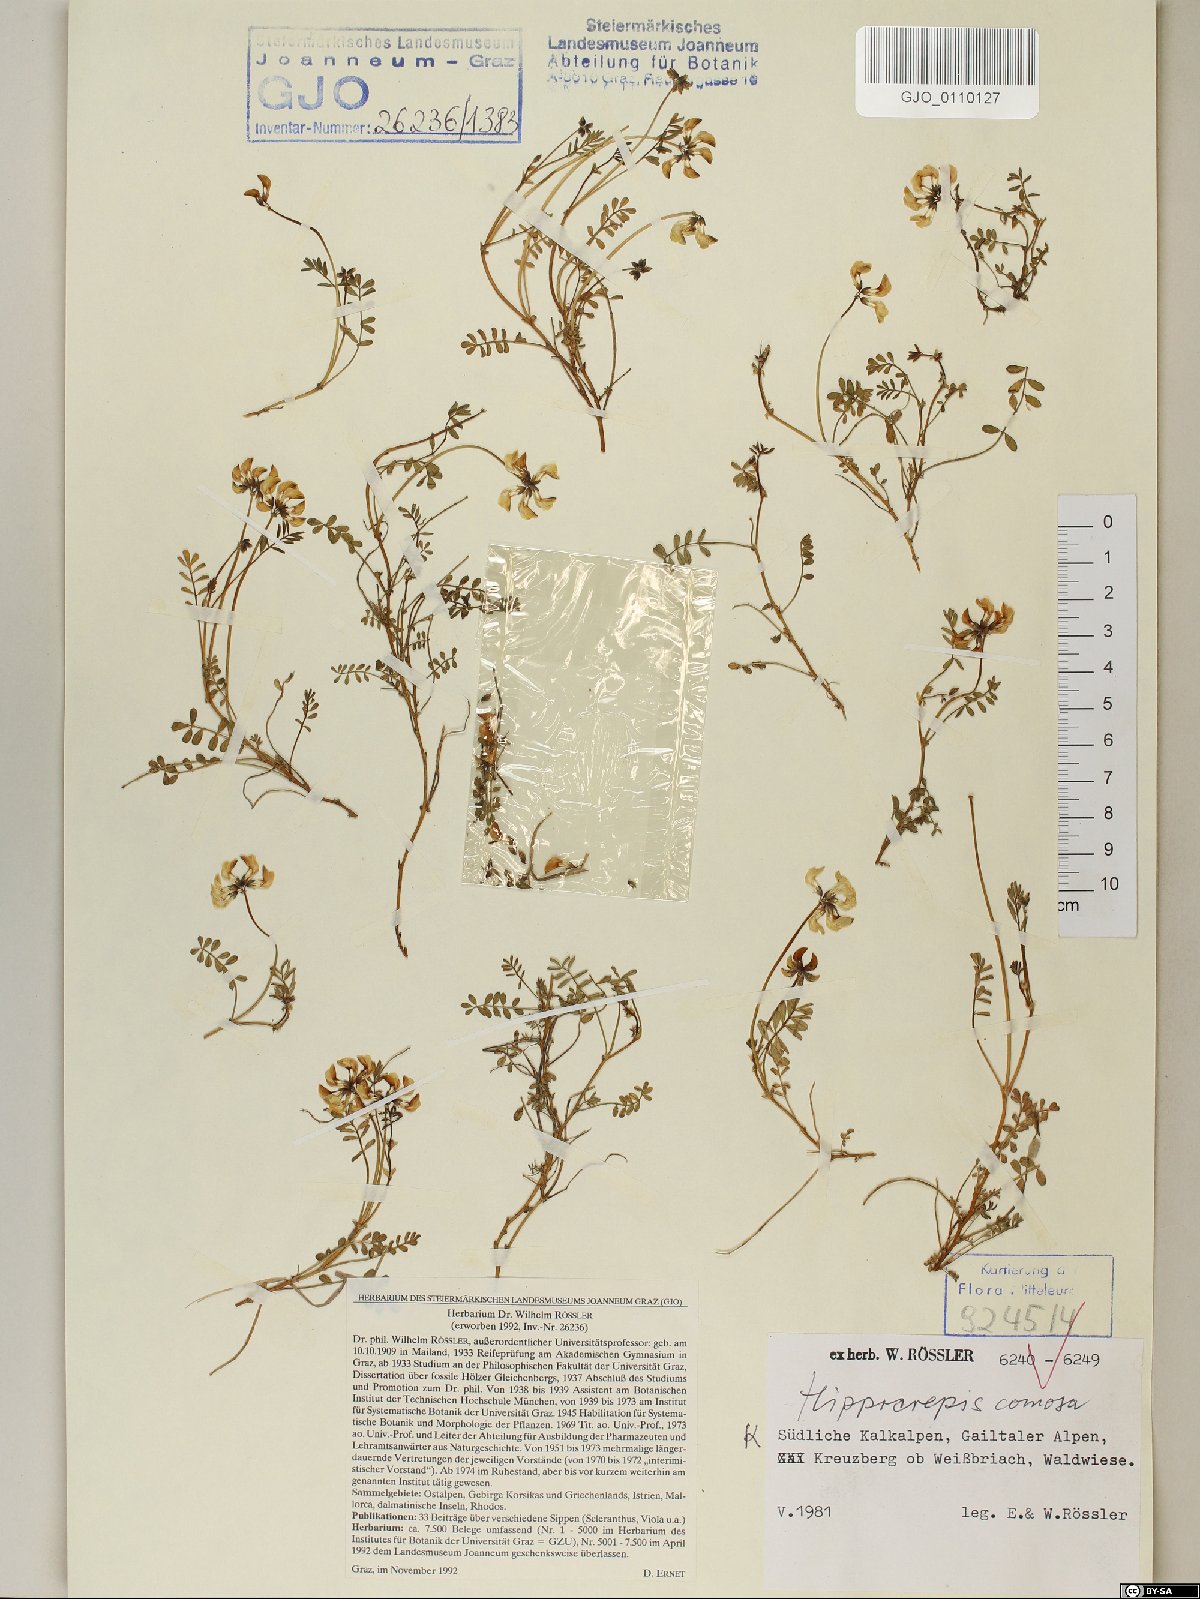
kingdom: Plantae
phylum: Tracheophyta
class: Magnoliopsida
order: Fabales
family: Fabaceae
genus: Hippocrepis
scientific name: Hippocrepis comosa
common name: Horseshoe vetch
